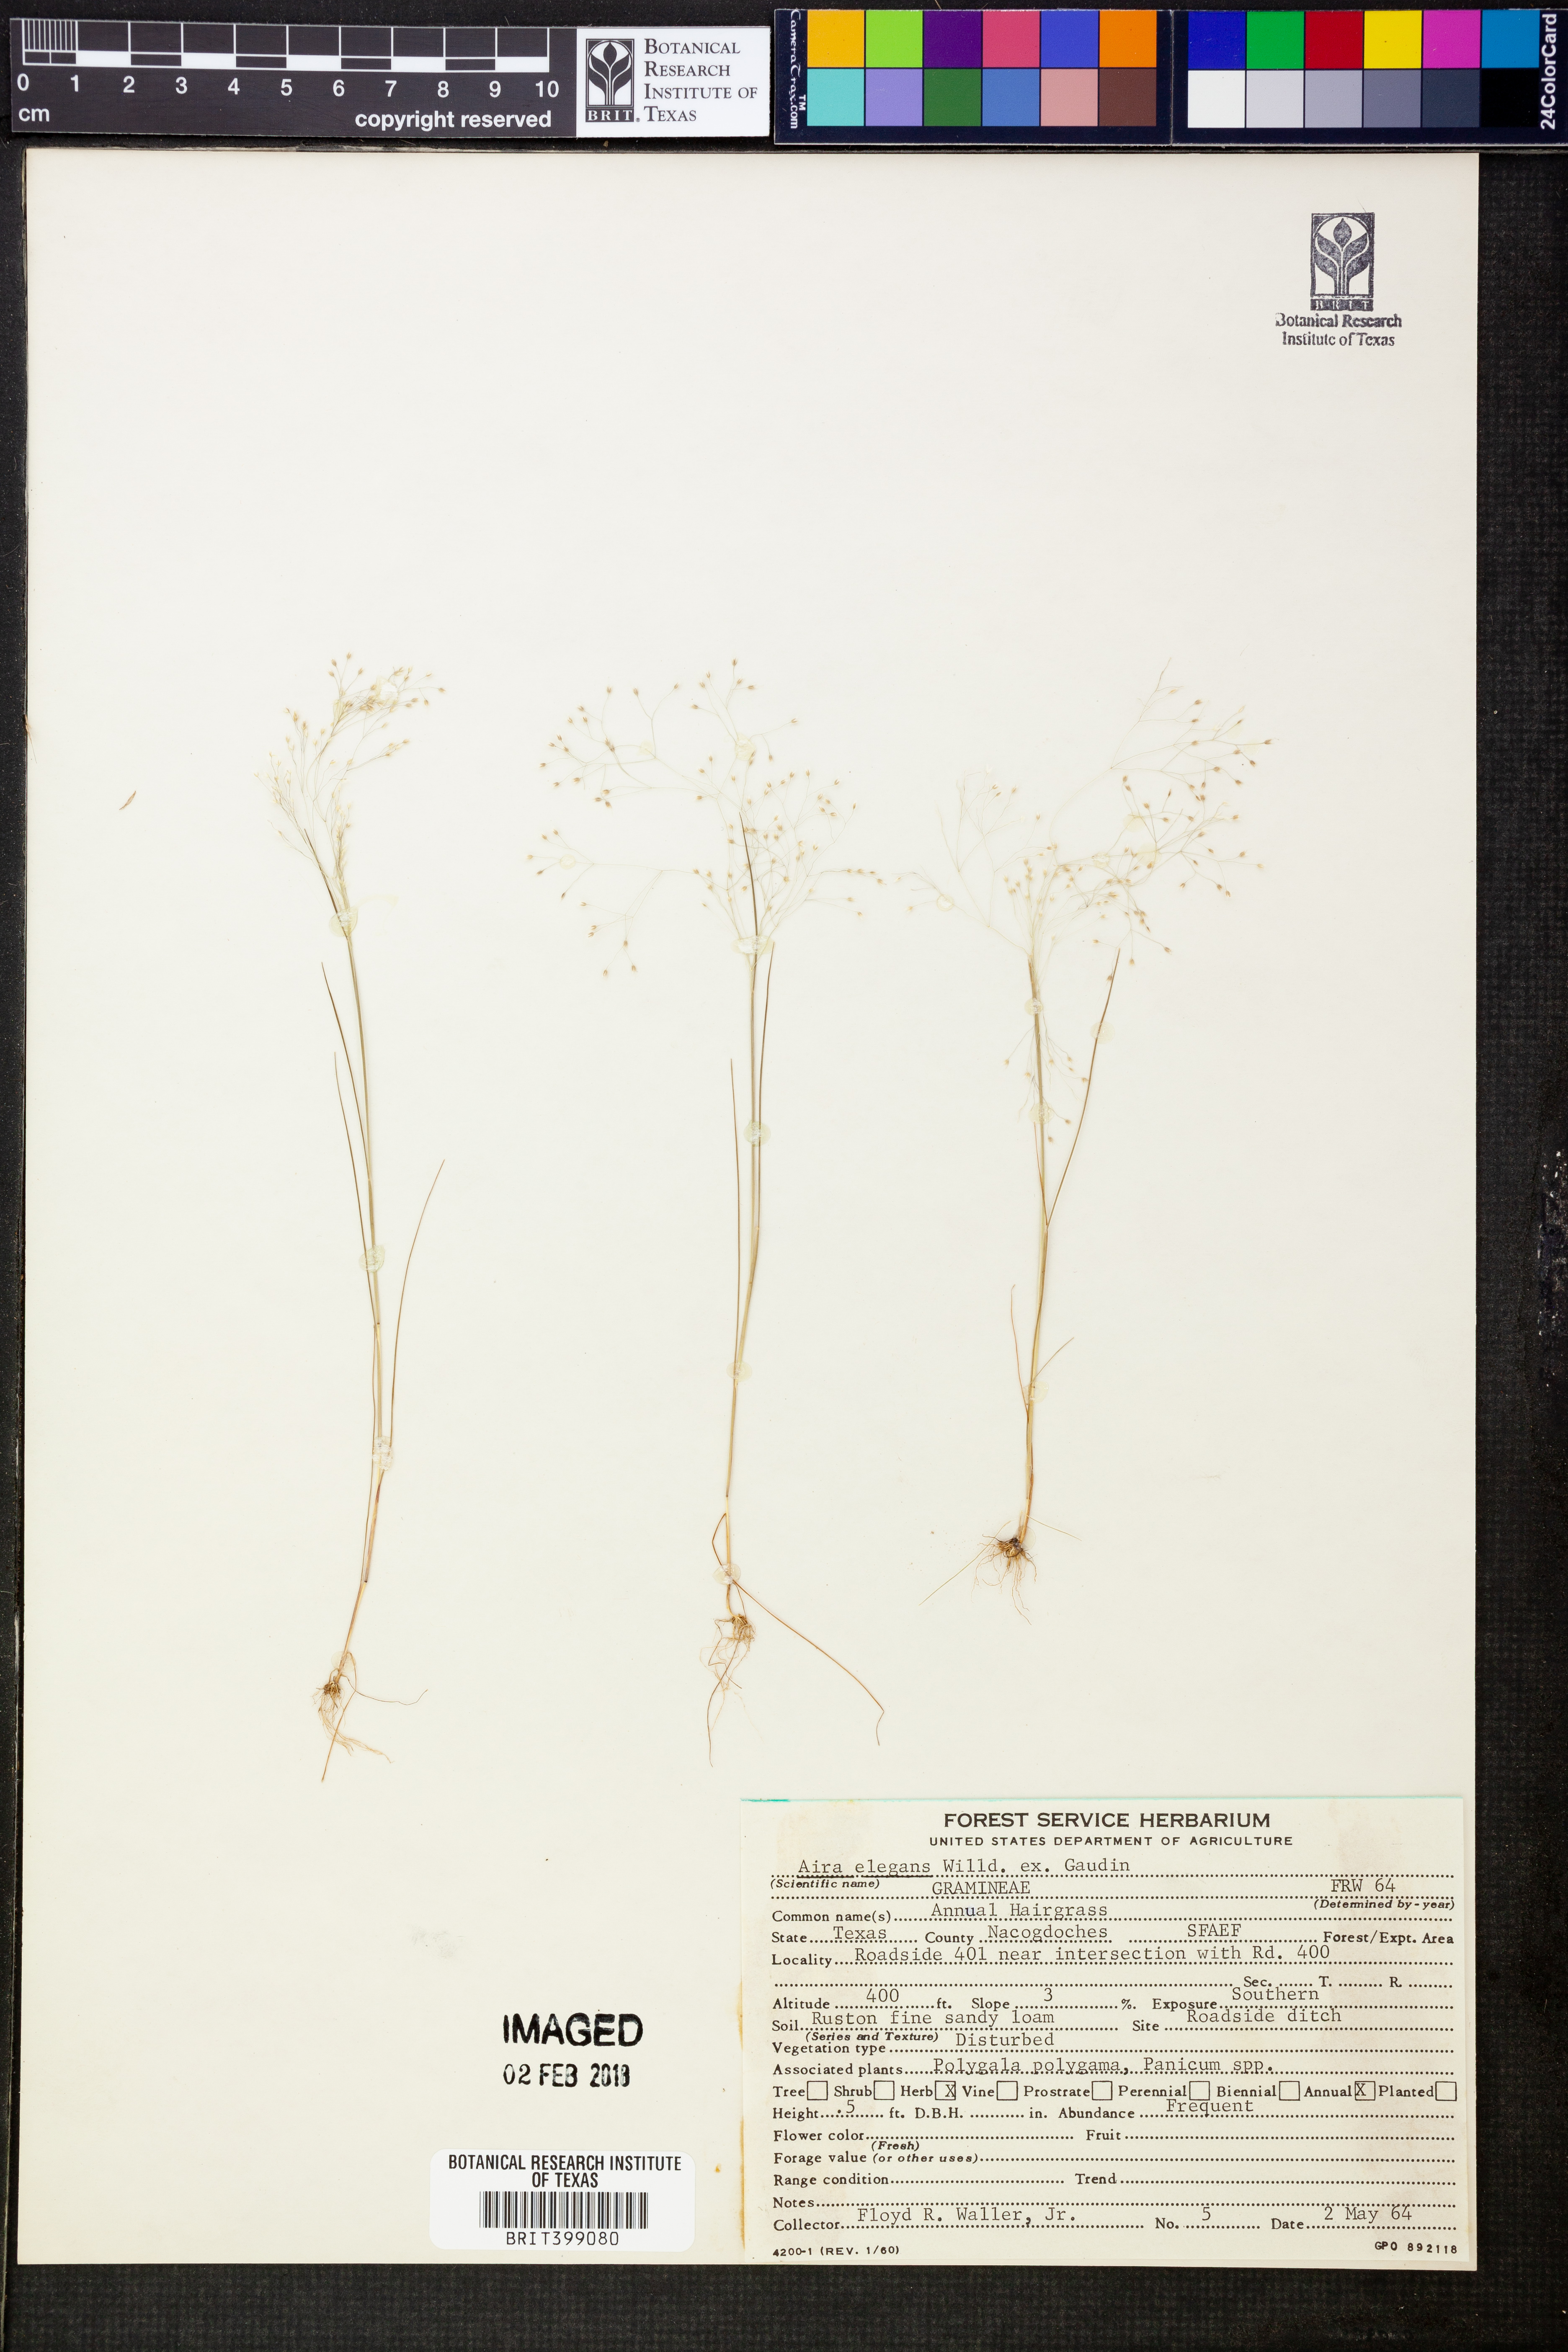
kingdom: Plantae
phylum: Tracheophyta
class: Liliopsida
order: Poales
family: Poaceae
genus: Aira
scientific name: Aira elegans
